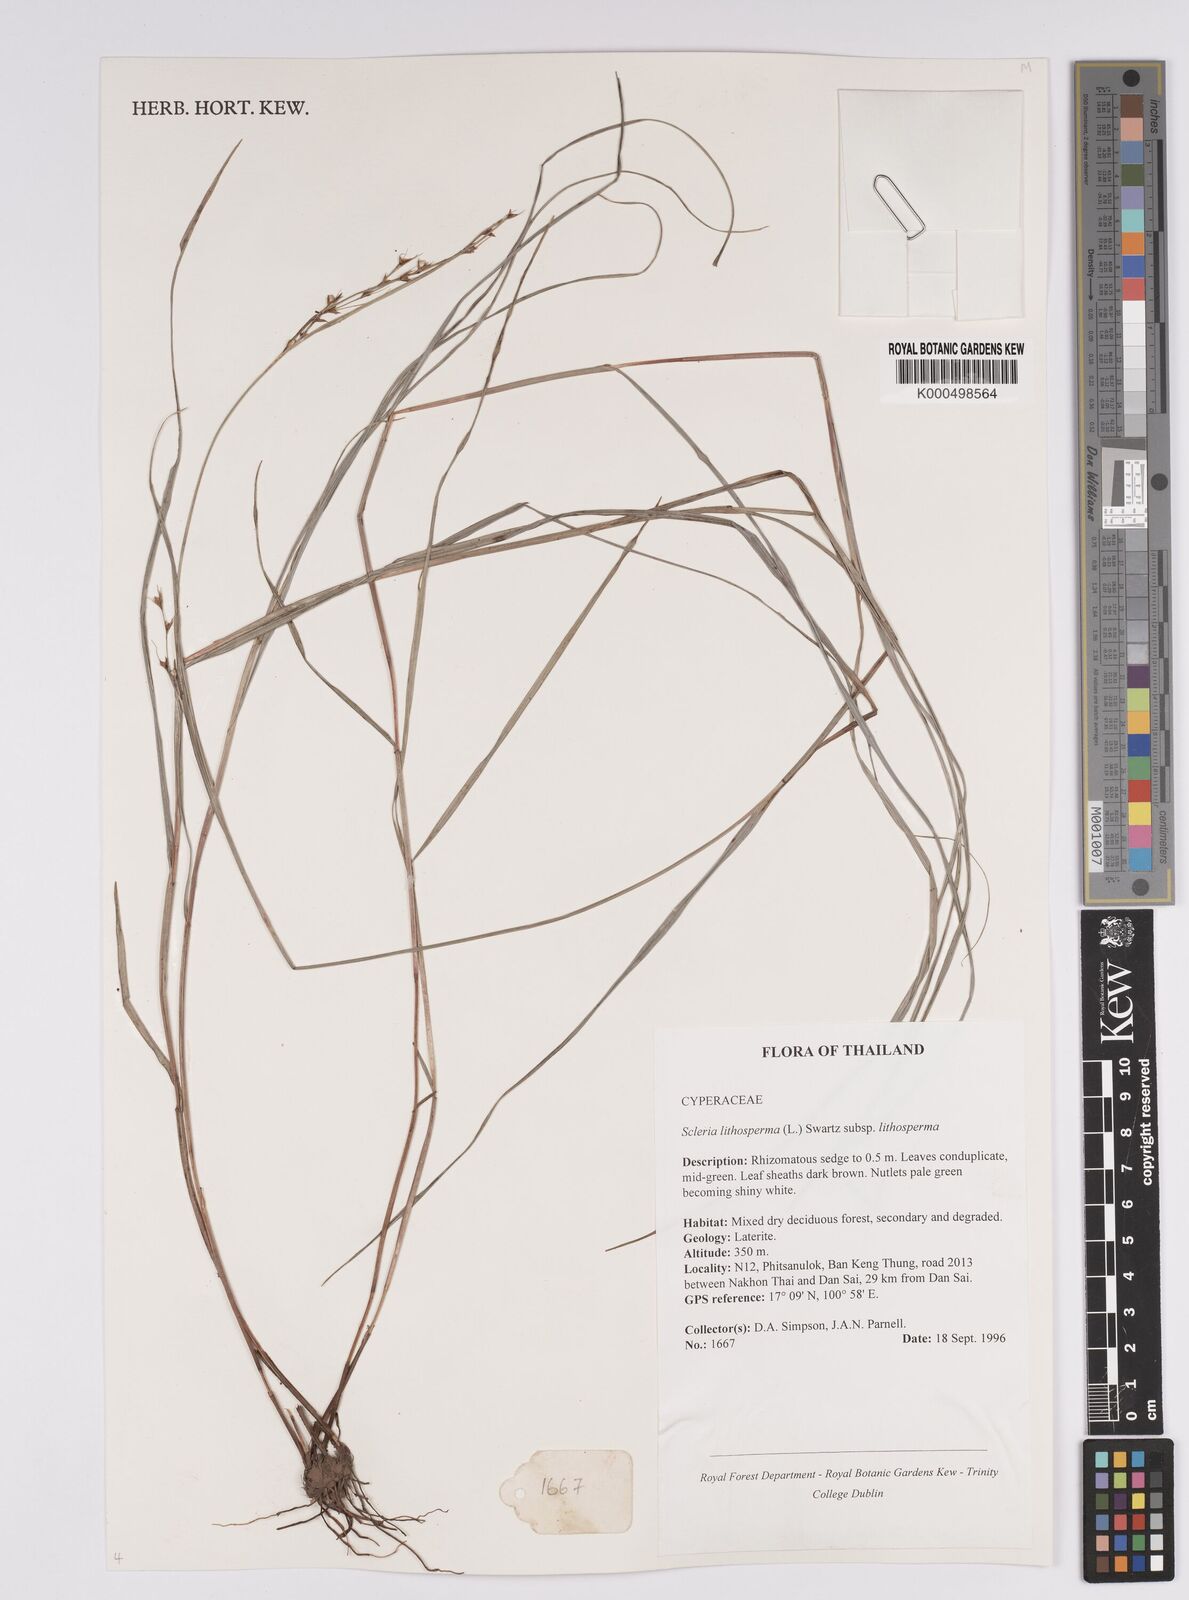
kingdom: Plantae
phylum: Tracheophyta
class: Liliopsida
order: Poales
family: Cyperaceae
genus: Scleria
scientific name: Scleria lithosperma
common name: Florida keys nut-rush
